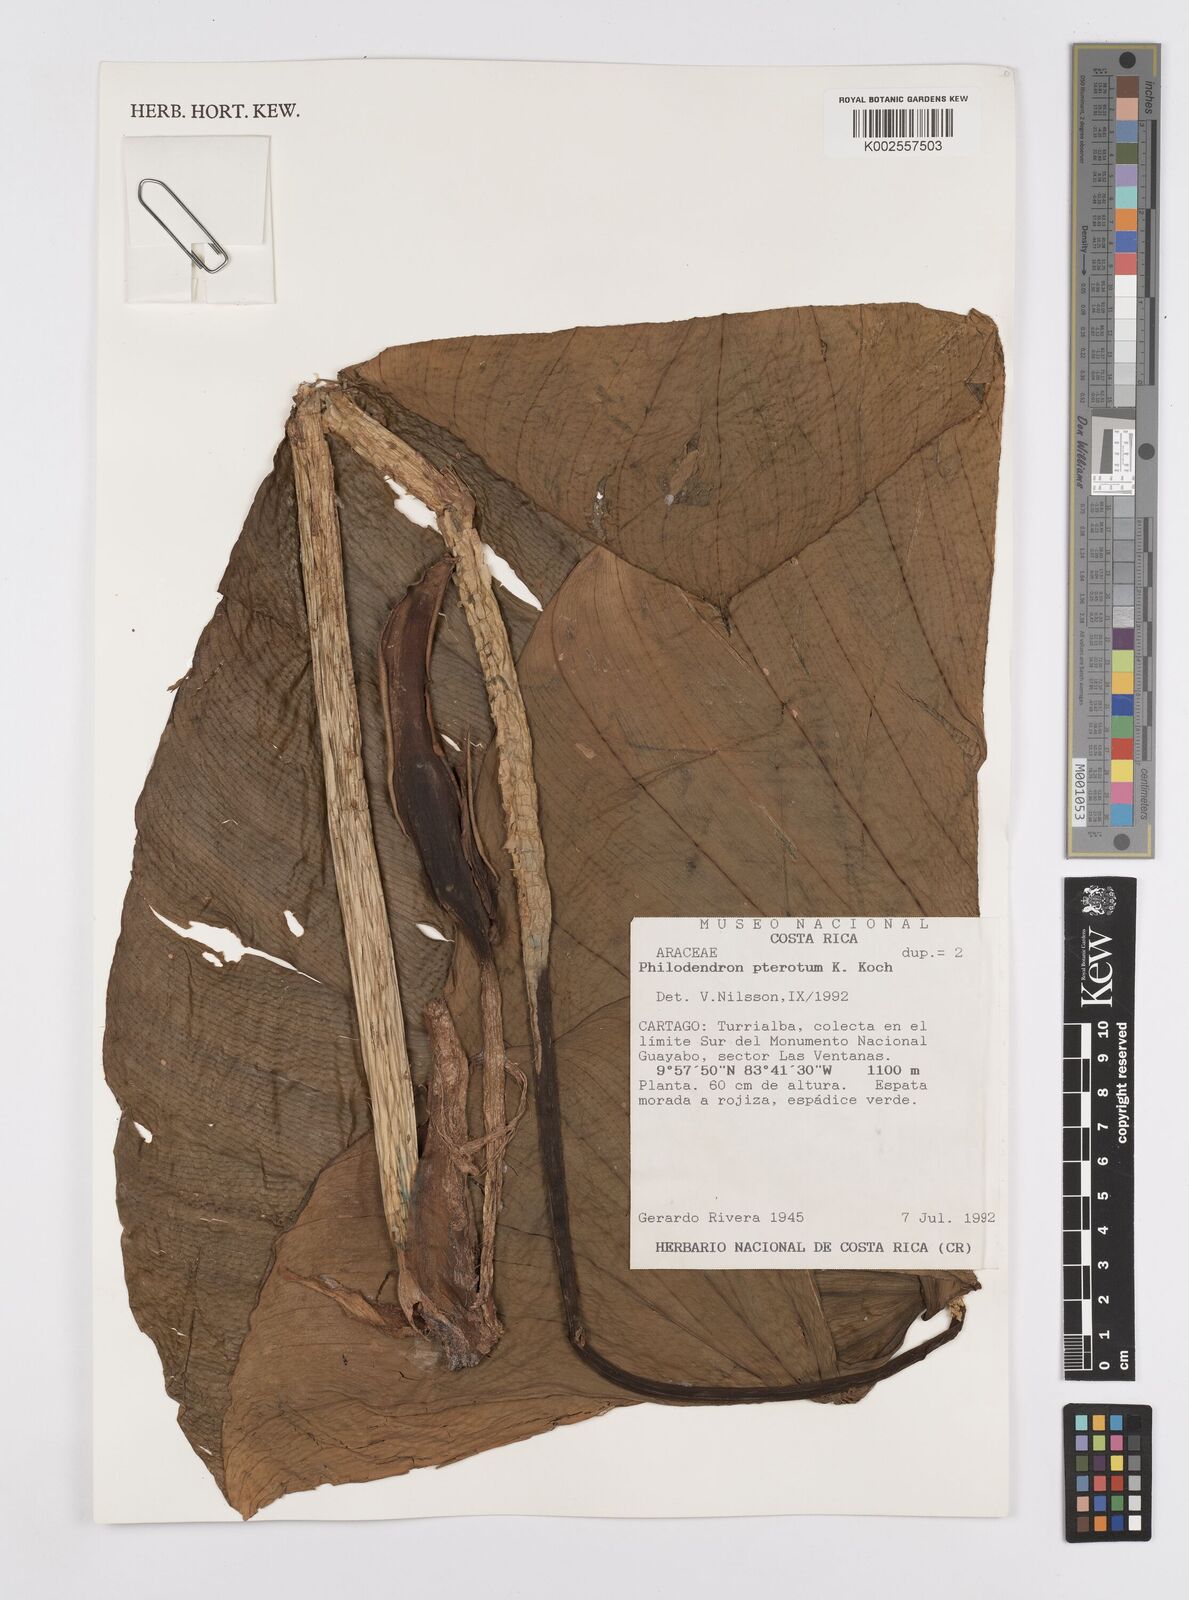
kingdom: Plantae
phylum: Tracheophyta
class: Liliopsida
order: Alismatales
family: Araceae
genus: Philodendron
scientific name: Philodendron pterotum
